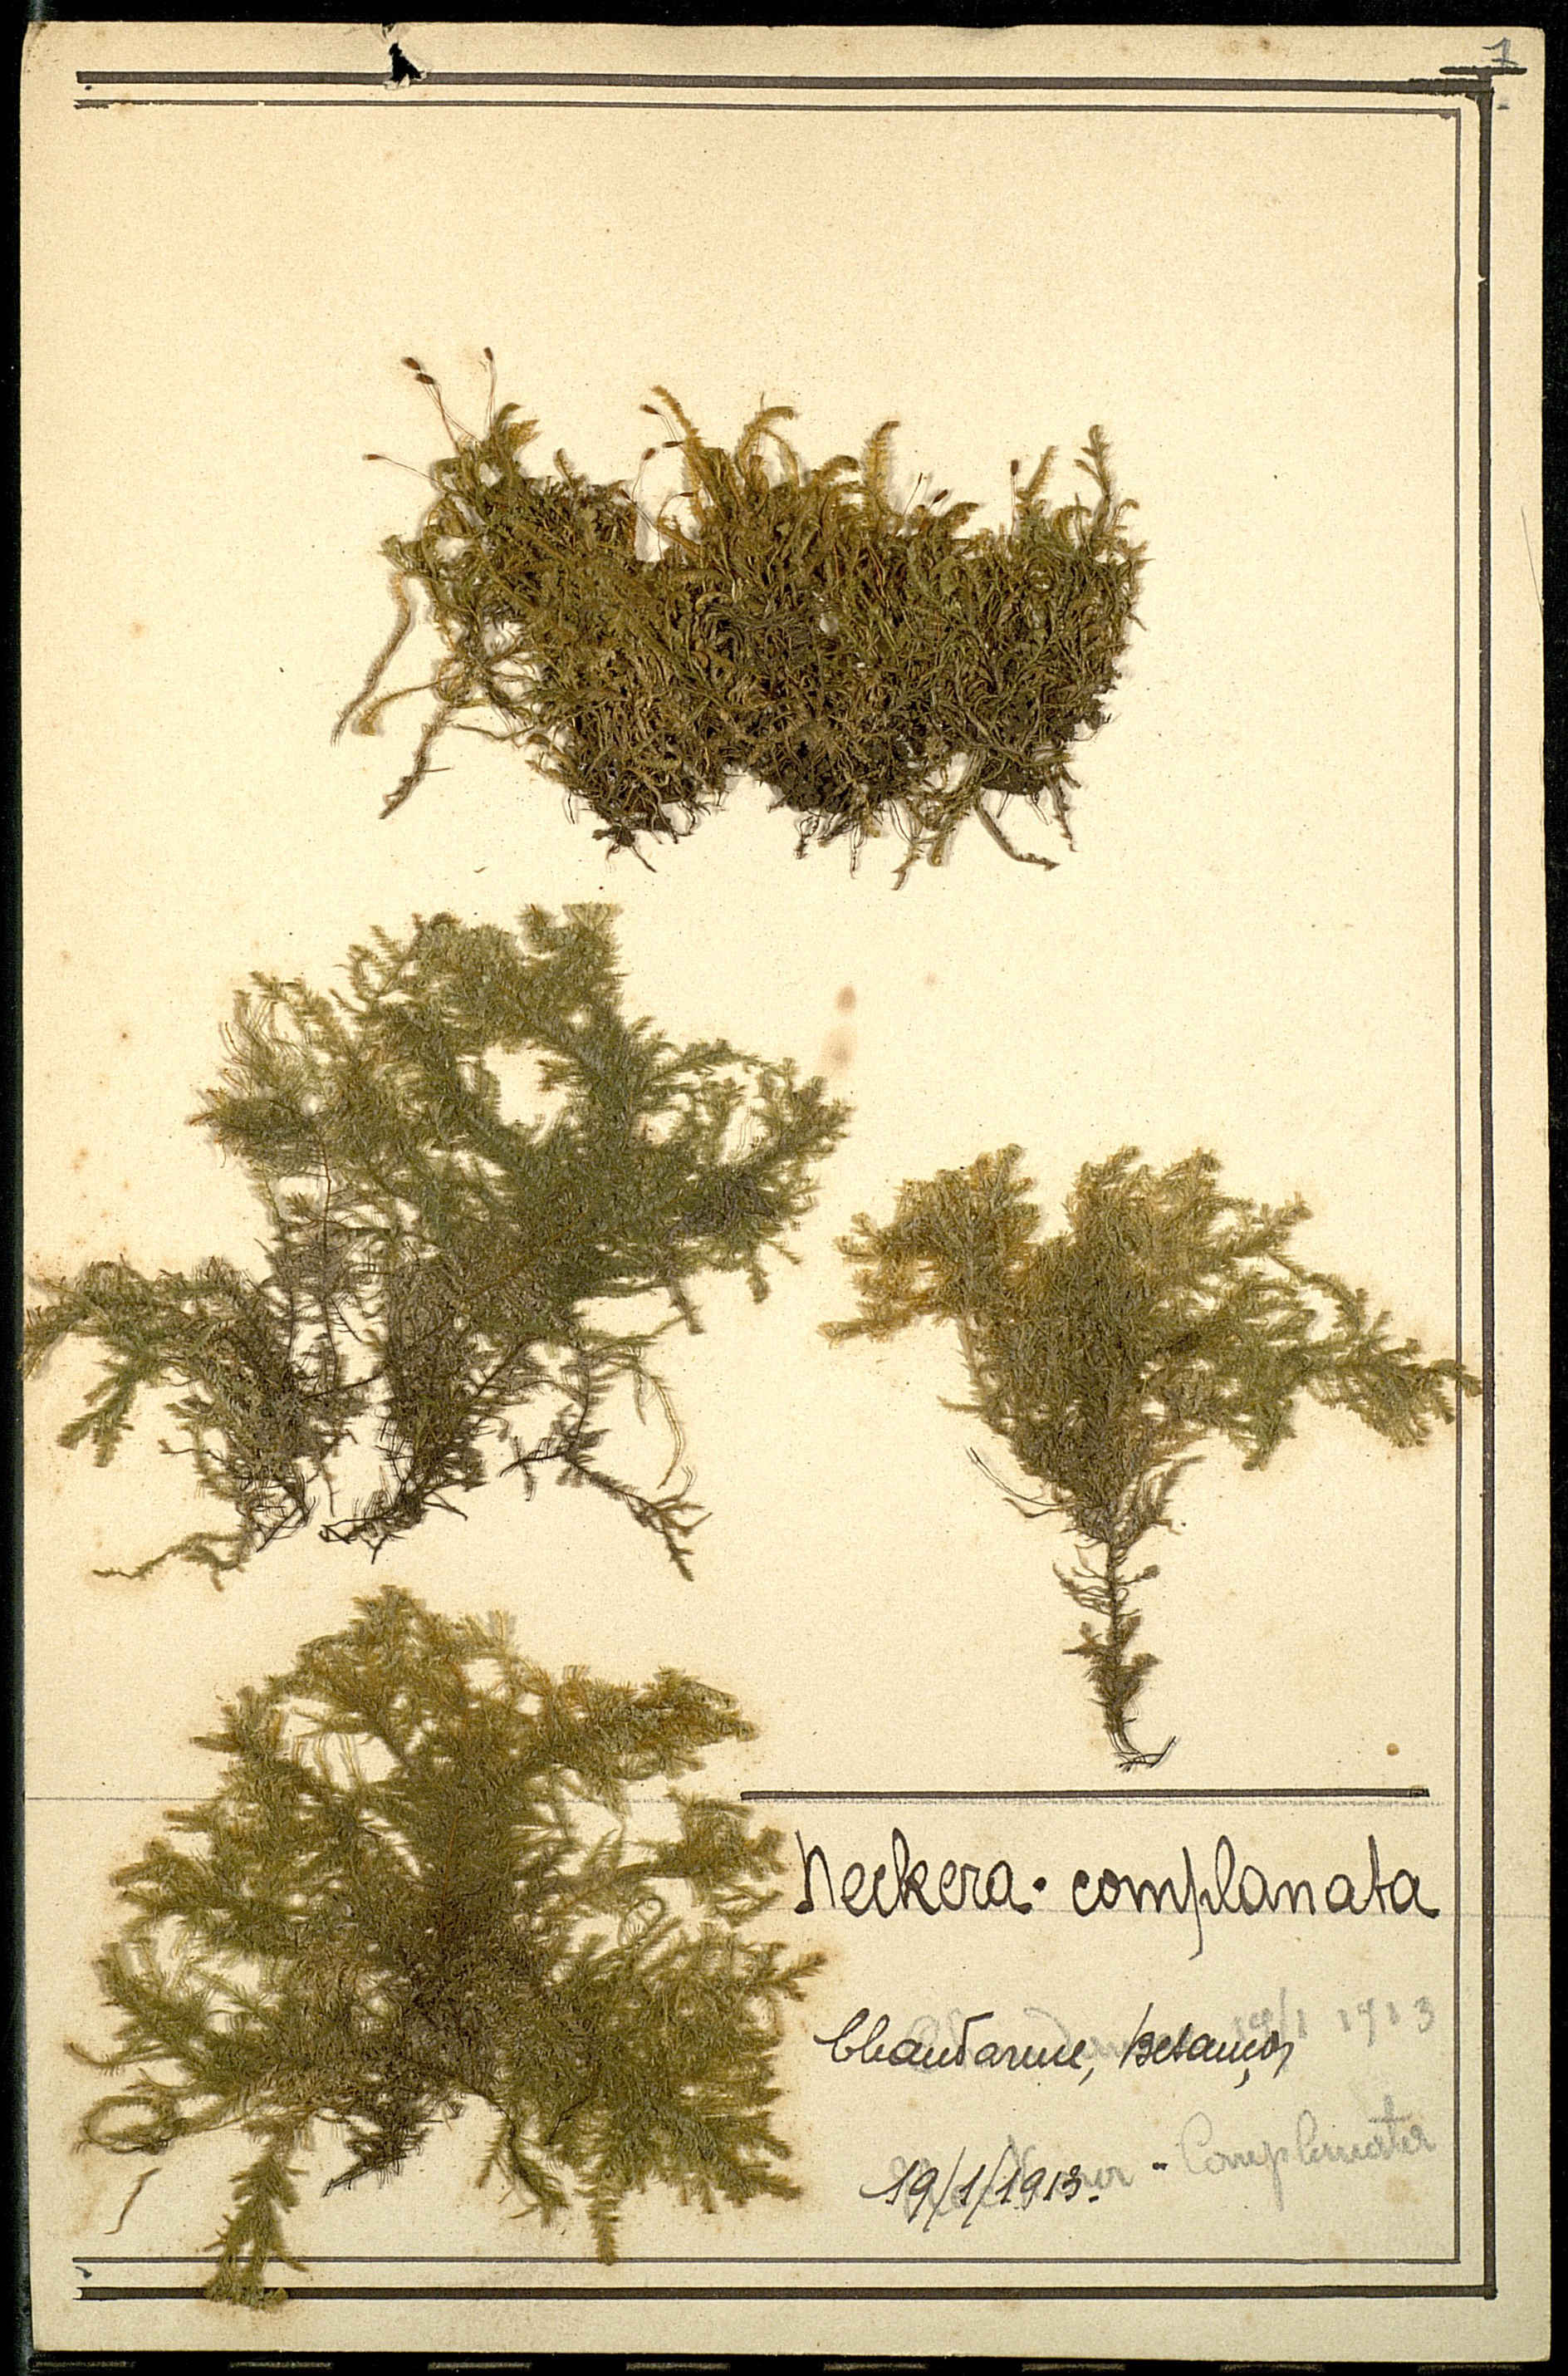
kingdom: Plantae
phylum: Bryophyta
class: Bryopsida
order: Hypnales
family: Neckeraceae
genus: Alleniella
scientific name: Alleniella complanata
